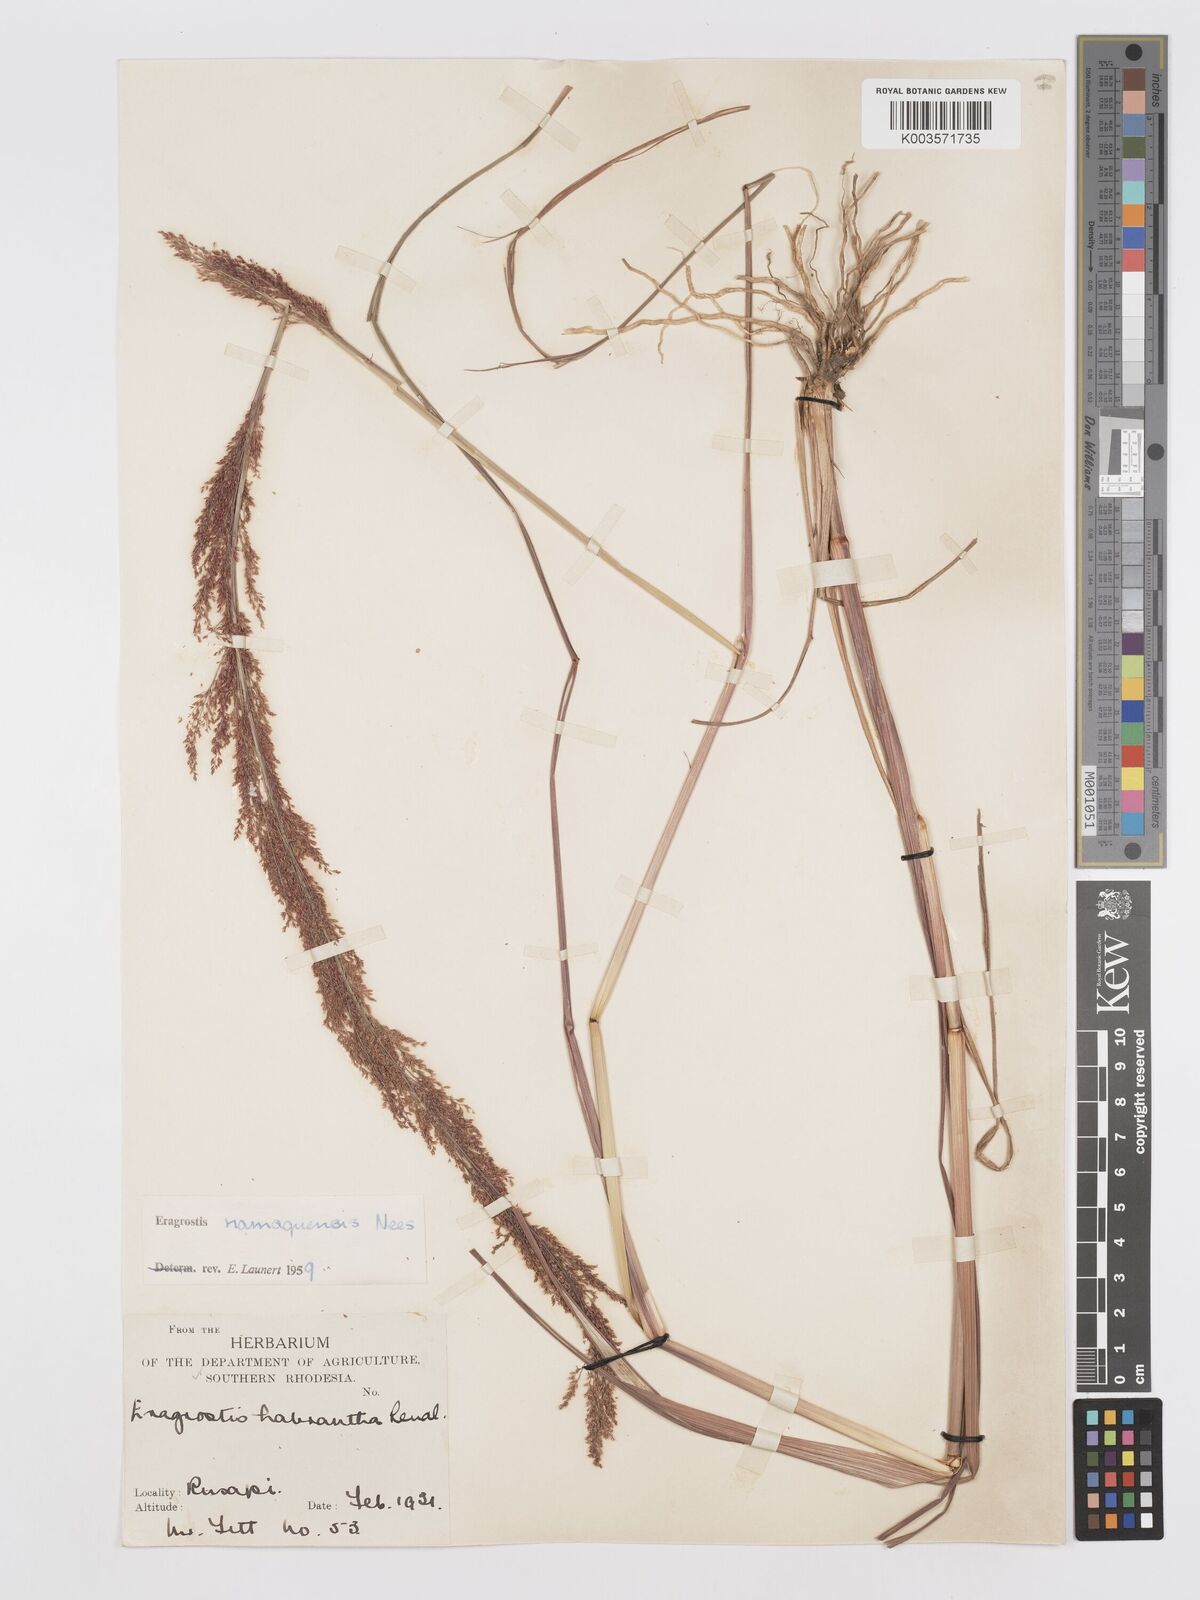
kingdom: Plantae
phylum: Tracheophyta
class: Liliopsida
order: Poales
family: Poaceae
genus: Eragrostis
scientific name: Eragrostis japonica
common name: Pond lovegrass
